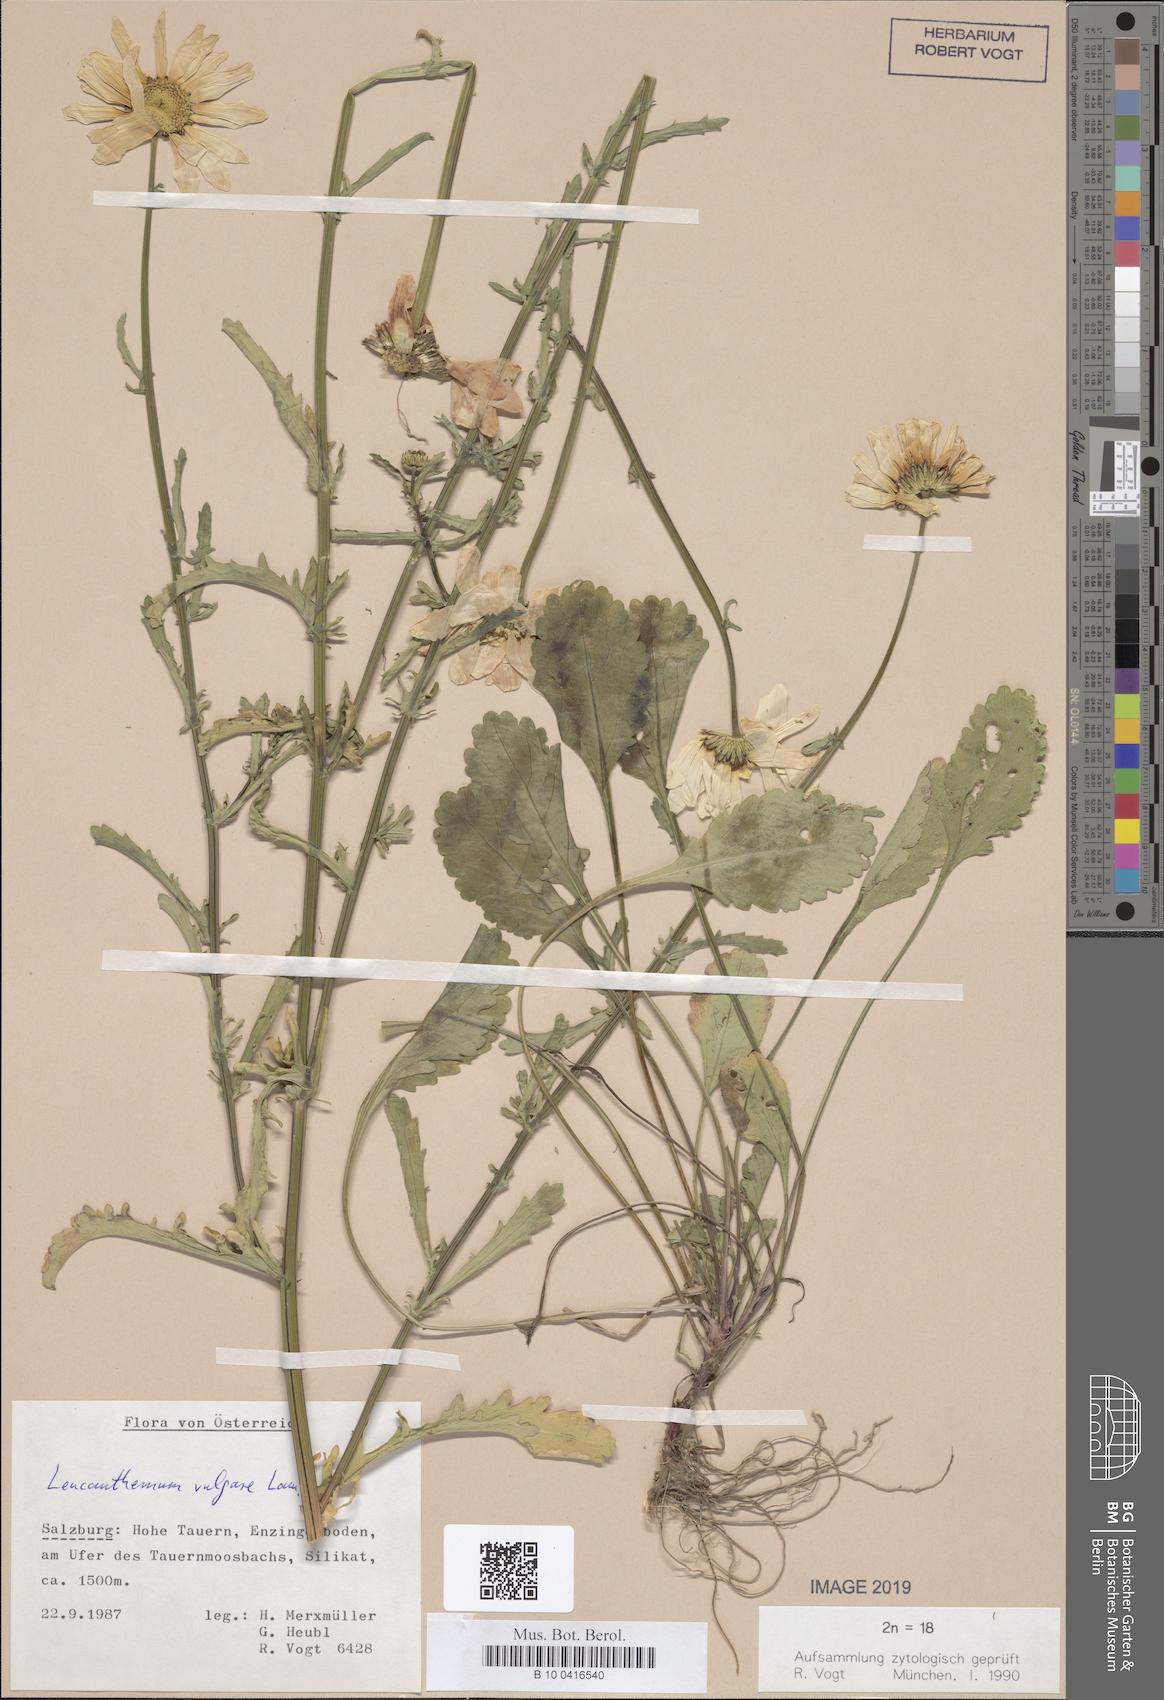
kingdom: Plantae
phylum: Tracheophyta
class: Magnoliopsida
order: Asterales
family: Asteraceae
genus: Leucanthemum
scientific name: Leucanthemum vulgare
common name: Oxeye daisy
